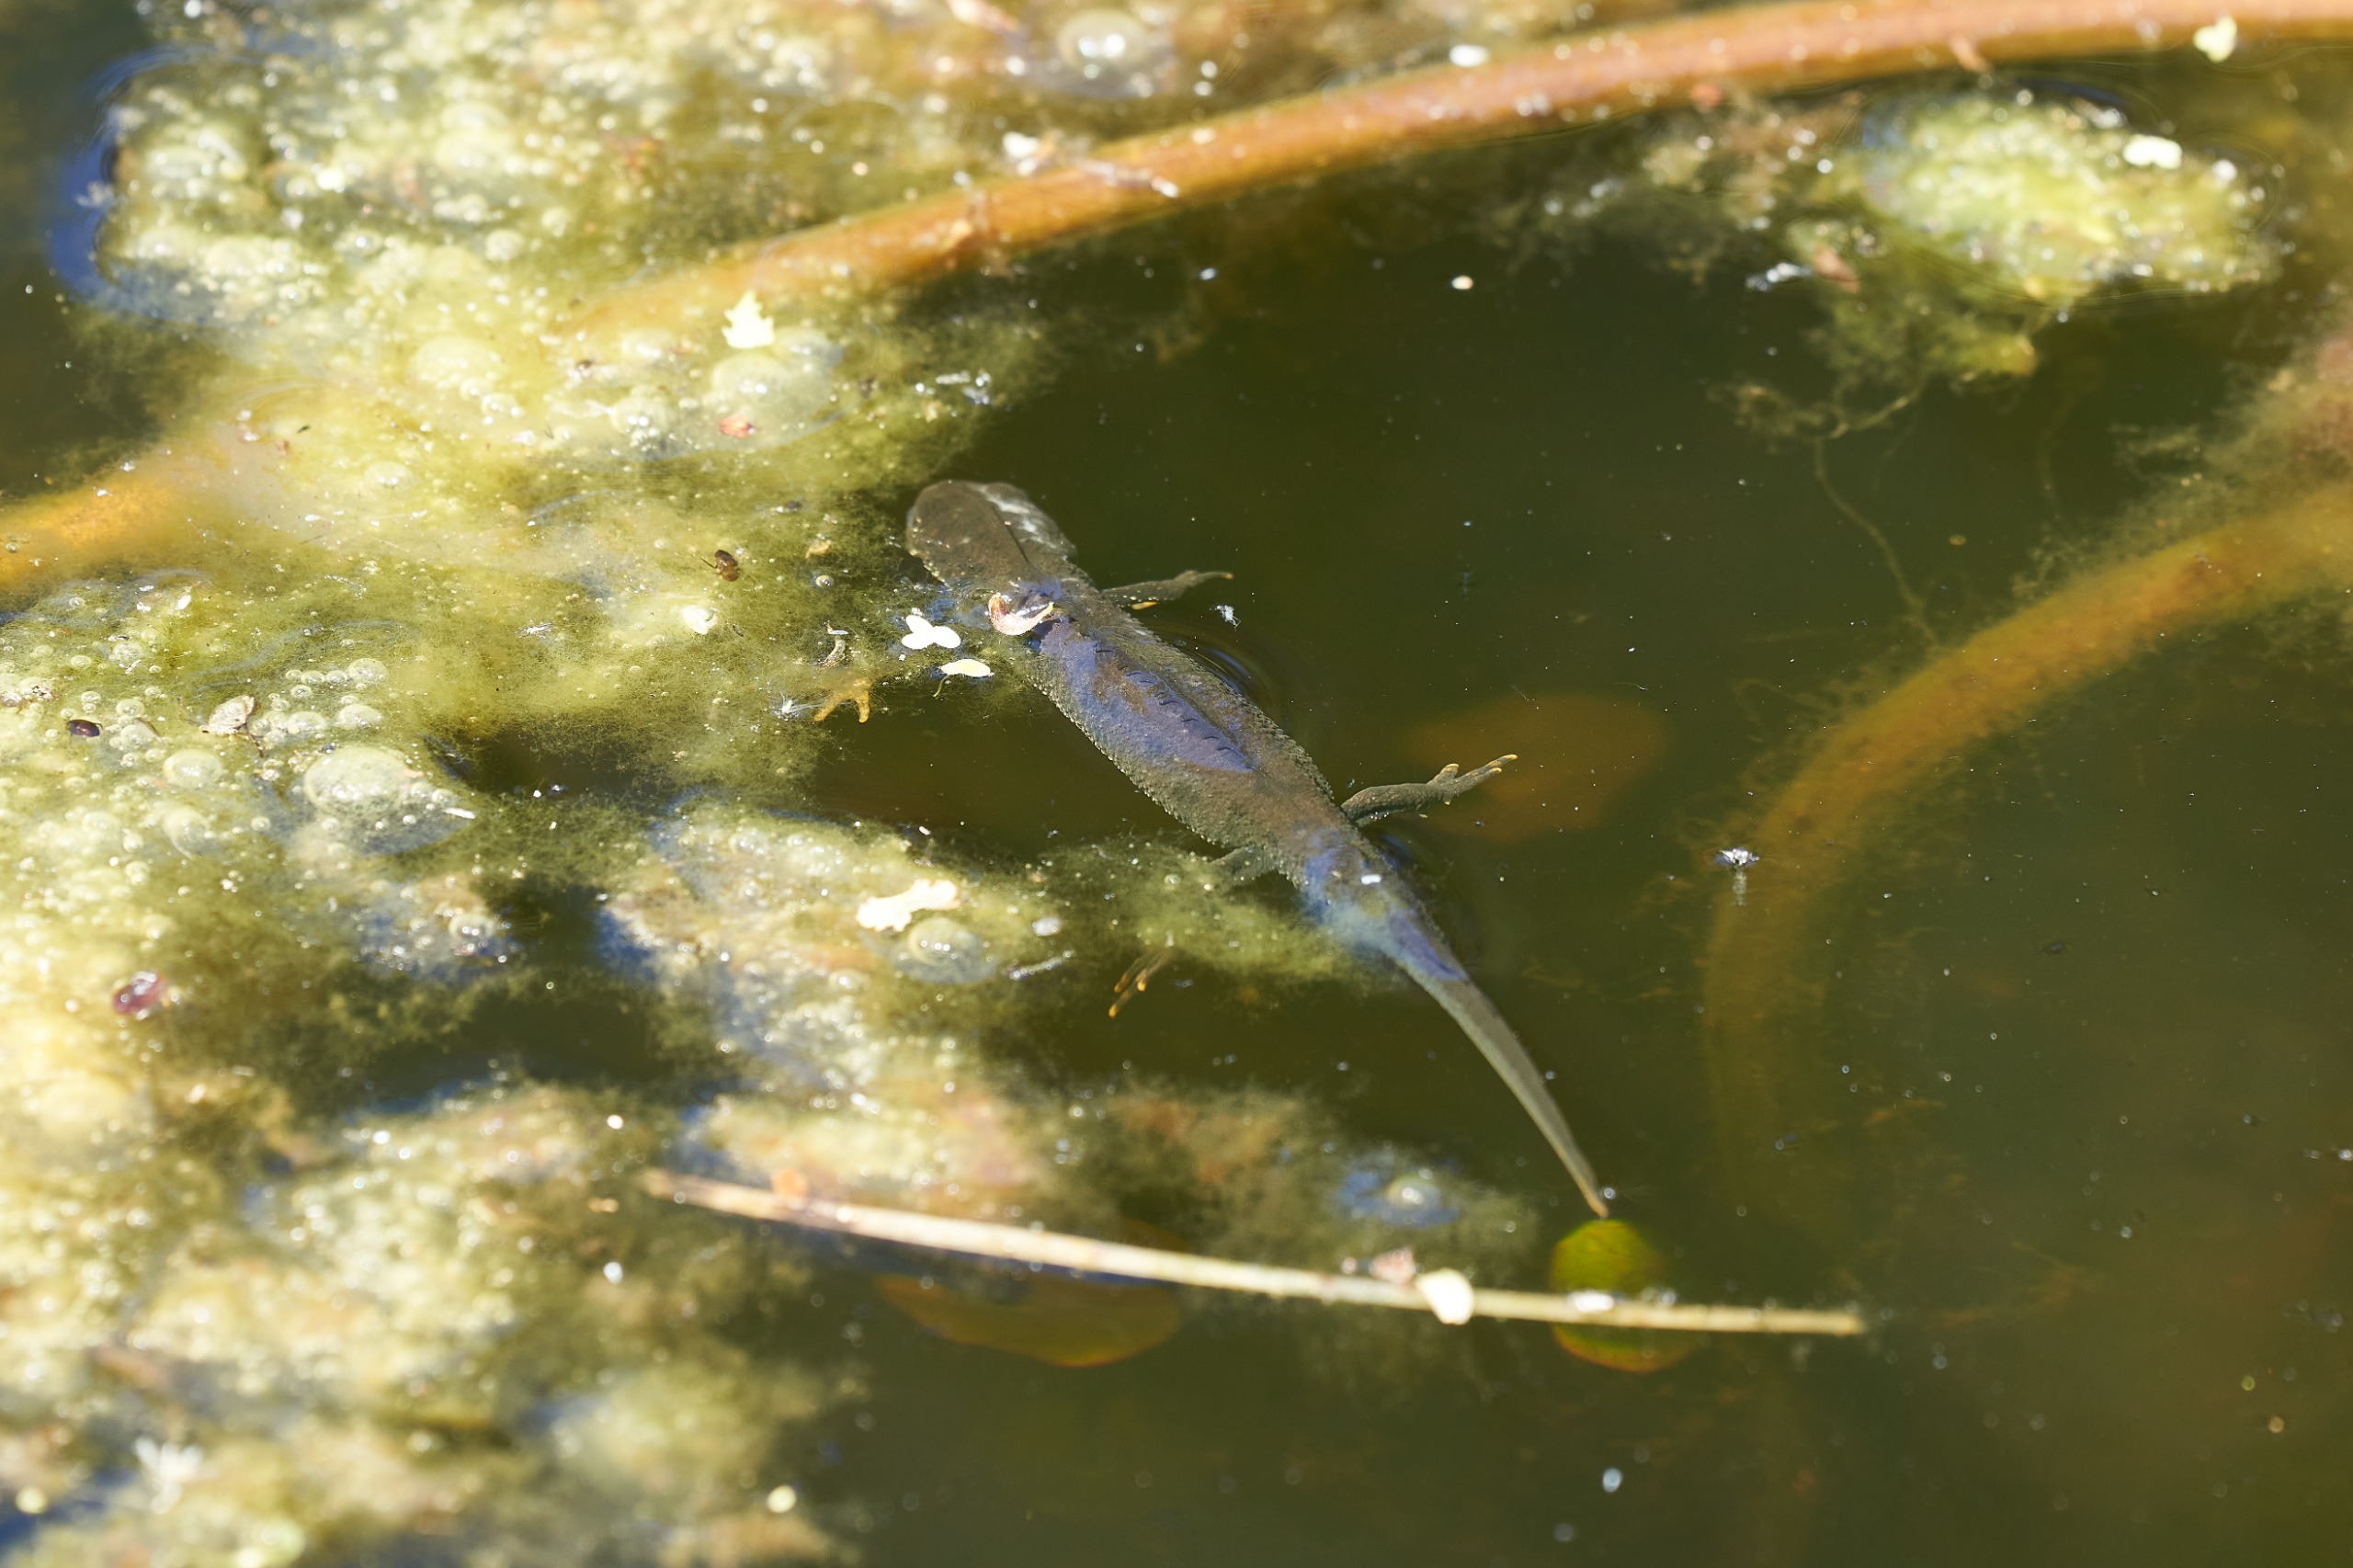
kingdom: Animalia
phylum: Chordata
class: Amphibia
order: Caudata
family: Salamandridae
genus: Triturus
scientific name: Triturus cristatus
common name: Stor vandsalamander
